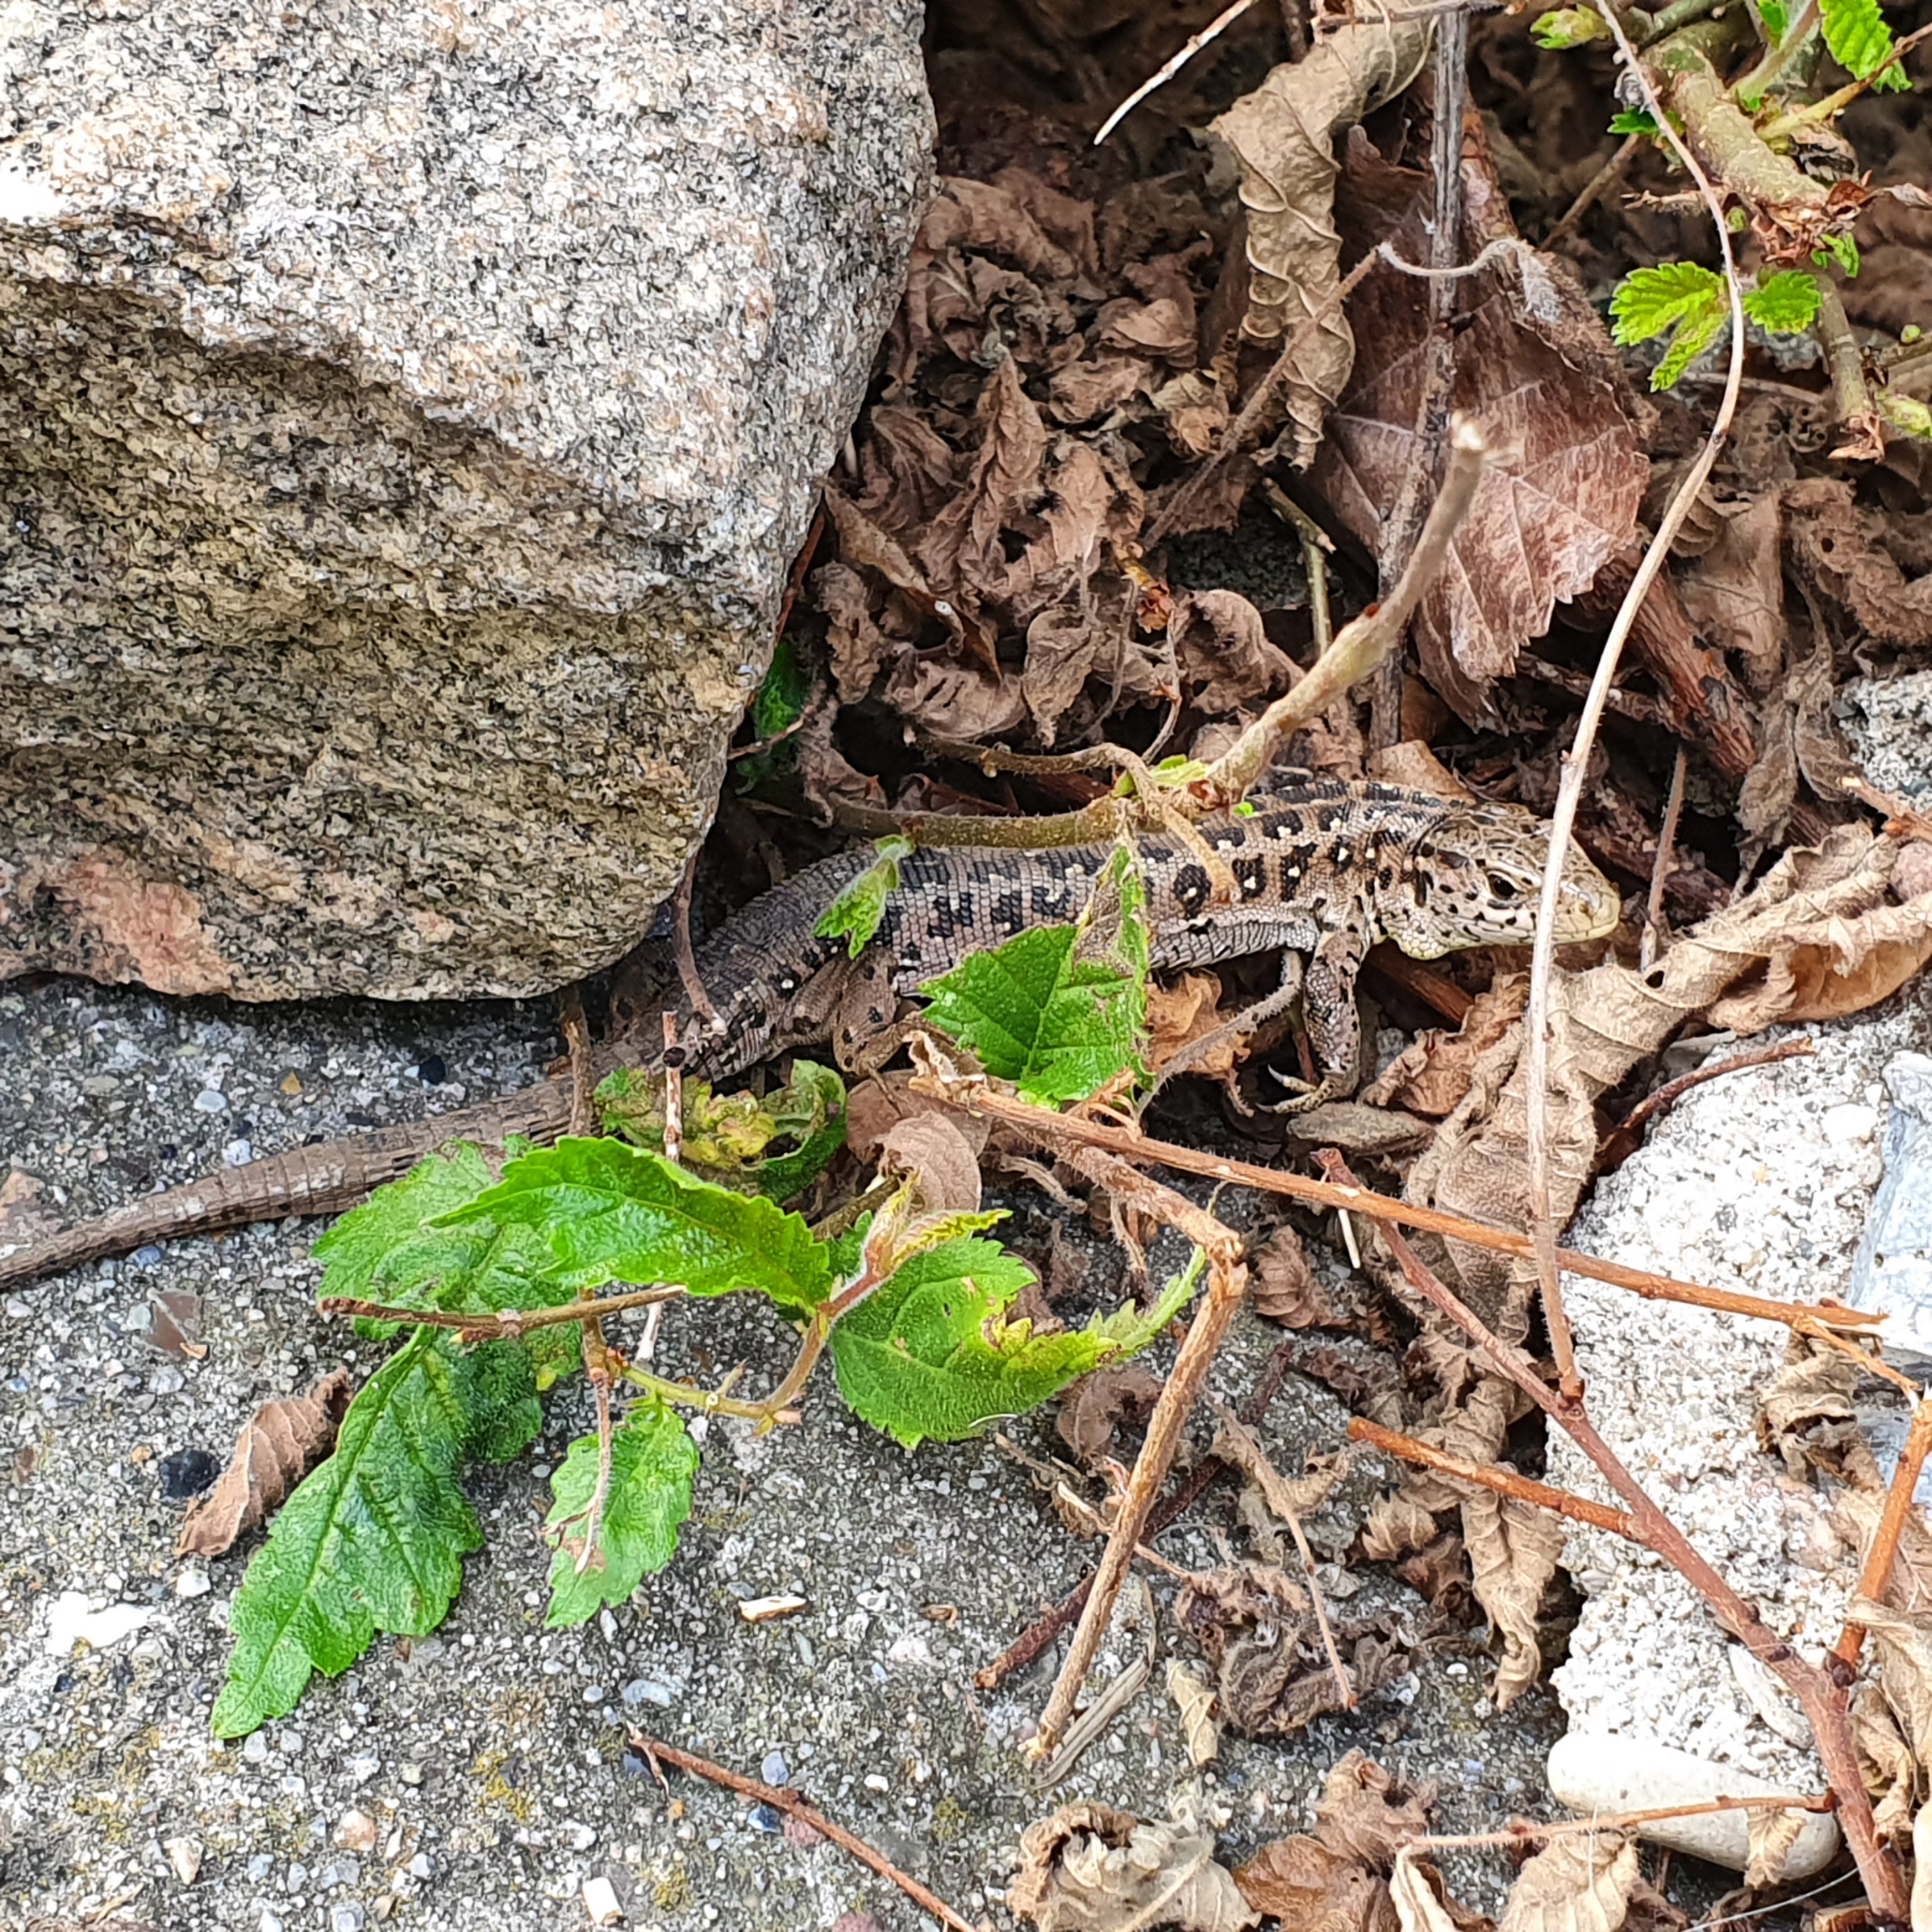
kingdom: Animalia
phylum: Chordata
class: Squamata
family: Lacertidae
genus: Lacerta
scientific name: Lacerta agilis
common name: Markfirben
